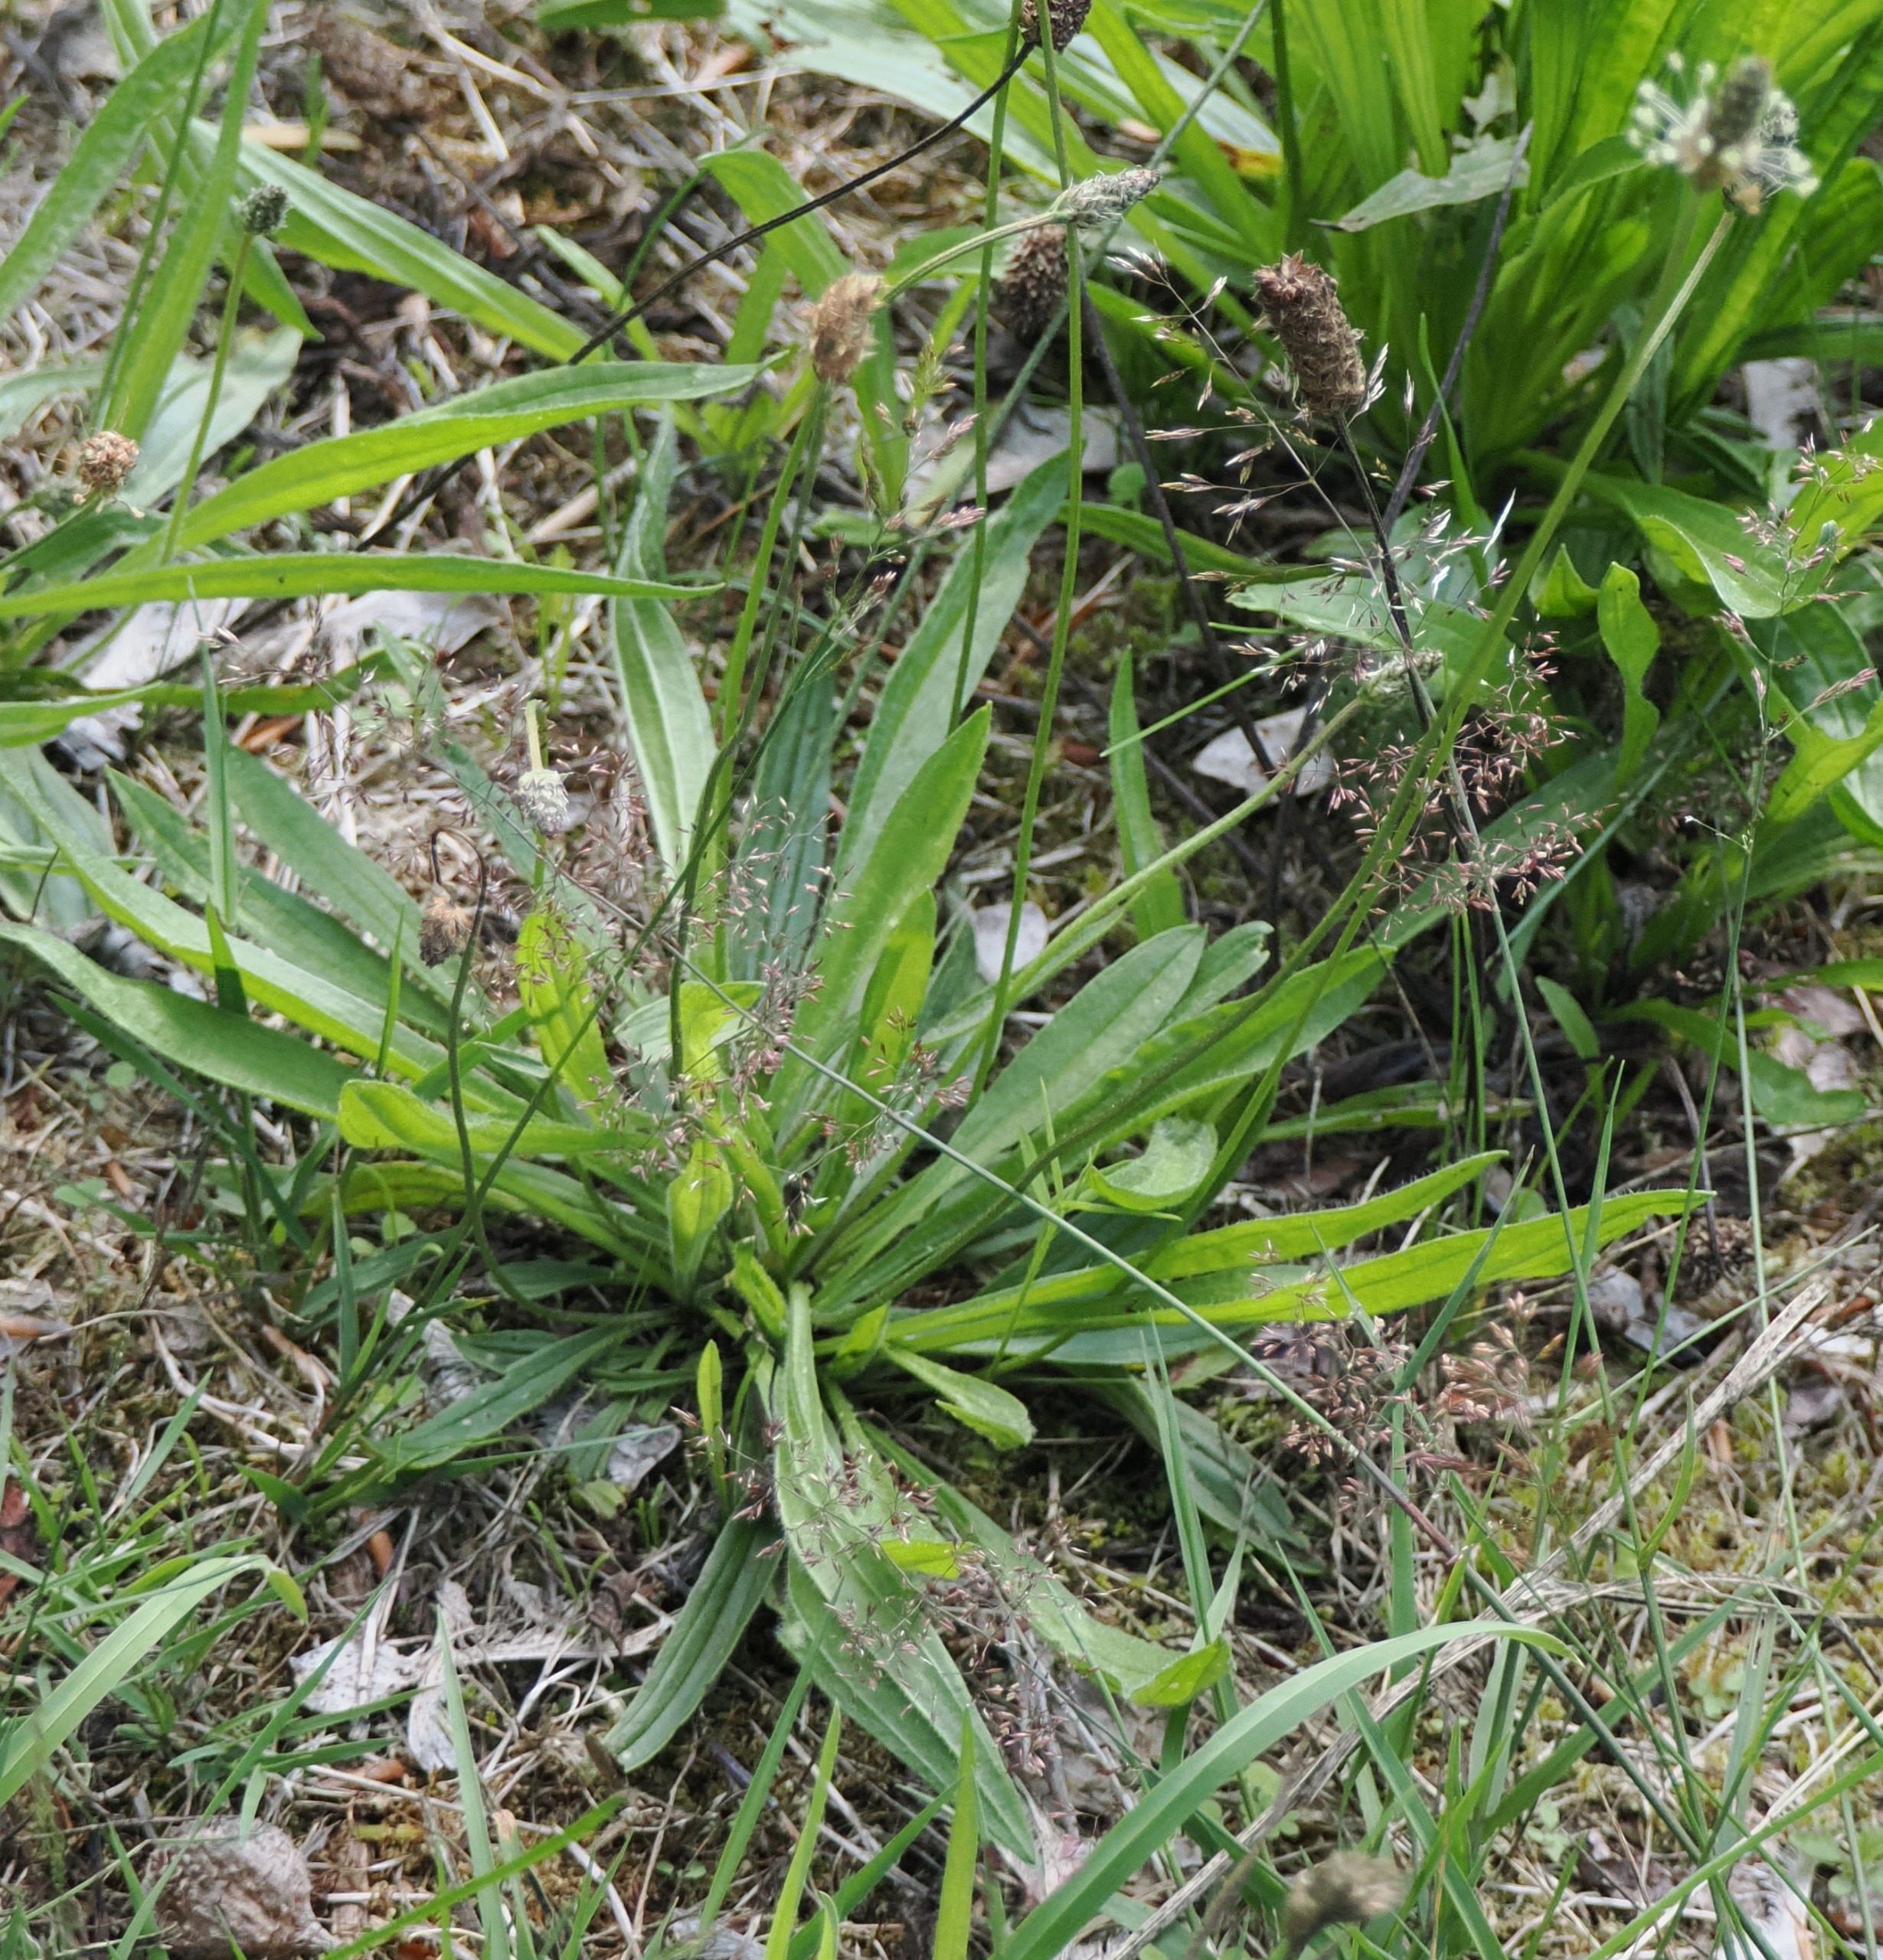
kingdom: Plantae
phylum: Tracheophyta
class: Magnoliopsida
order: Lamiales
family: Plantaginaceae
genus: Plantago
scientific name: Plantago lanceolata
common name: Lancet-vejbred
